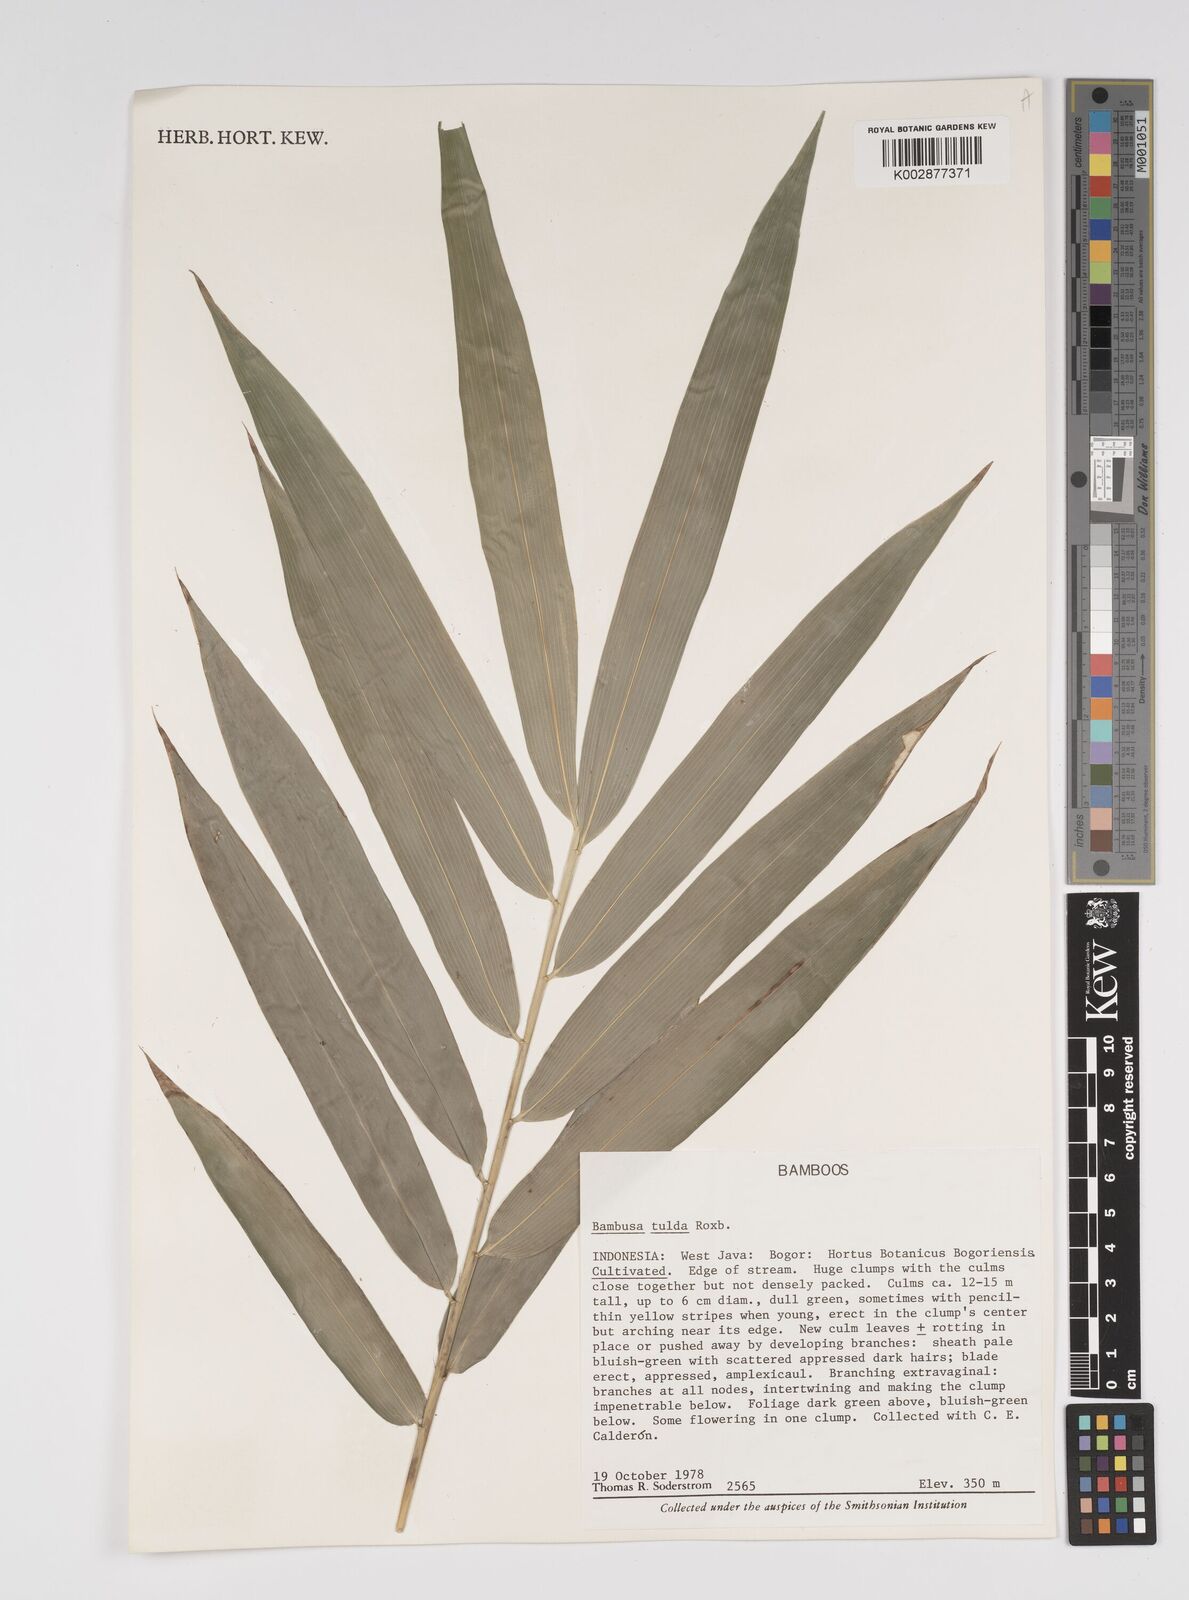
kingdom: Plantae
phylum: Tracheophyta
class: Liliopsida
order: Poales
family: Poaceae
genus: Bambusa
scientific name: Bambusa tulda
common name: Bengal bamboo
